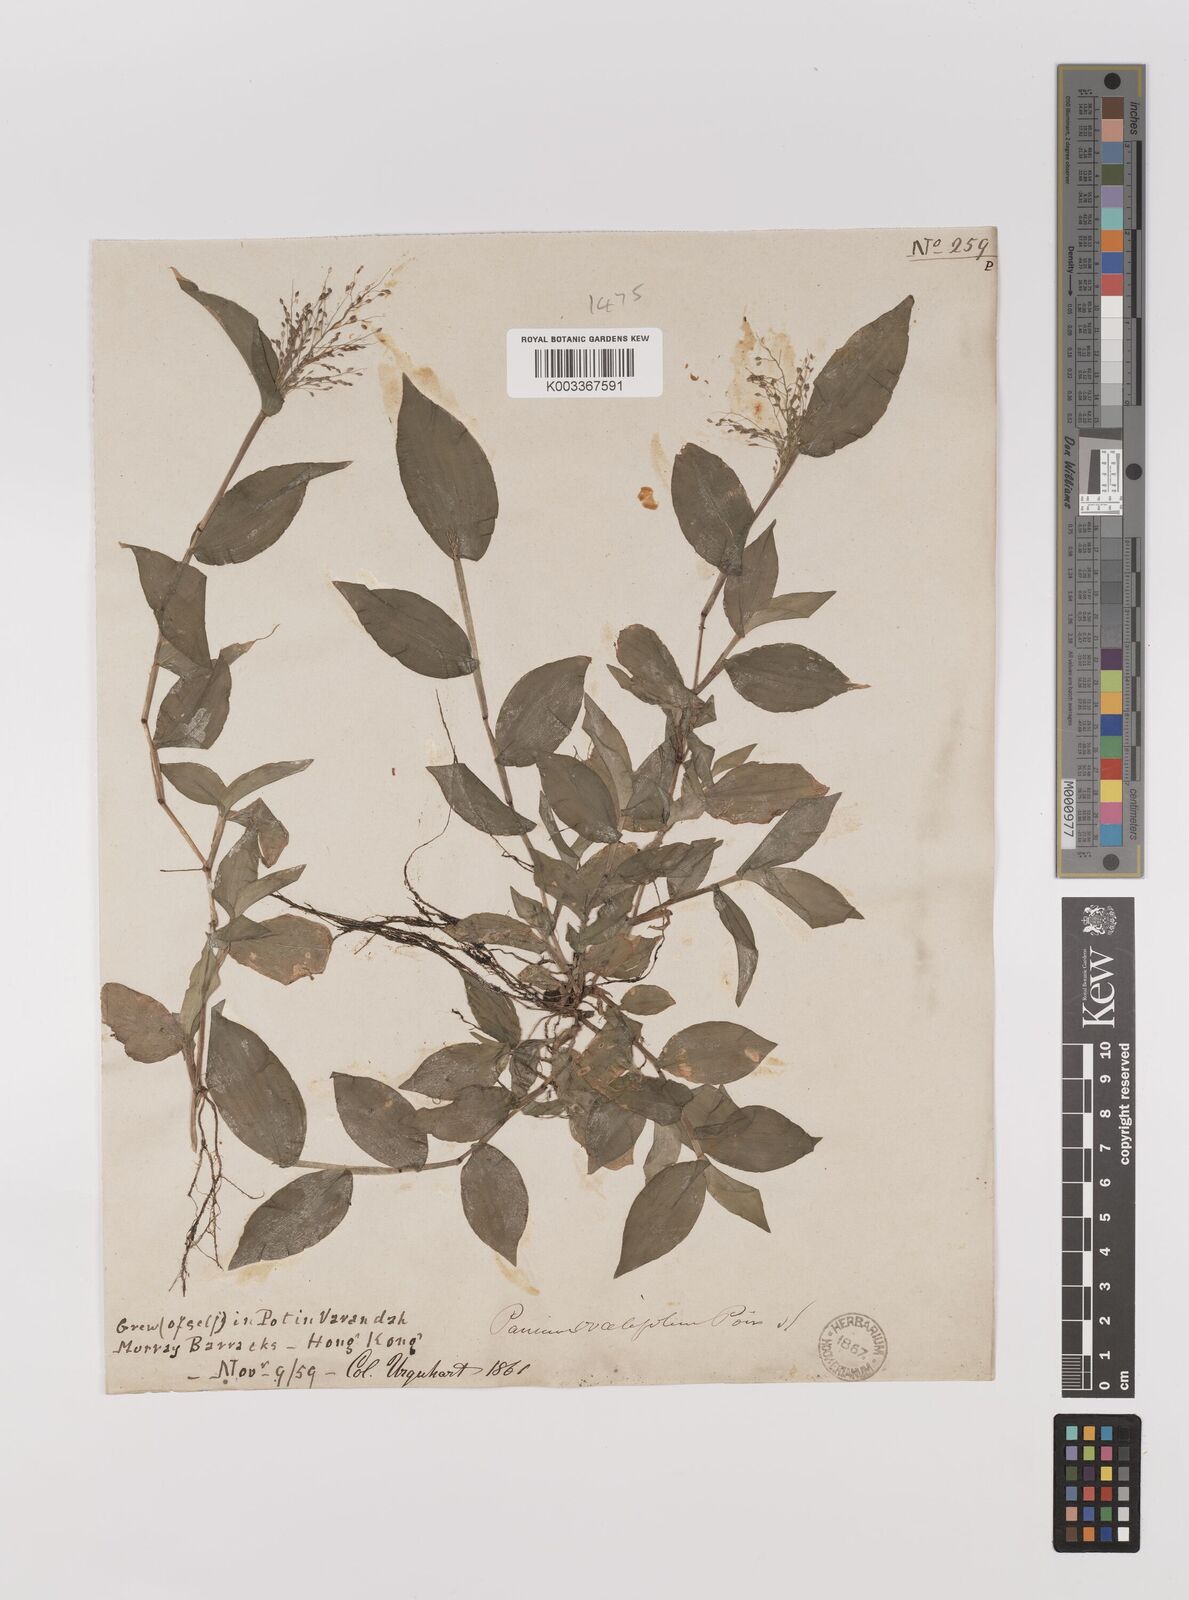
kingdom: Plantae
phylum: Tracheophyta
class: Liliopsida
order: Poales
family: Poaceae
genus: Panicum
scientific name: Panicum brevifolium
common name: Shortleaf panic grass
